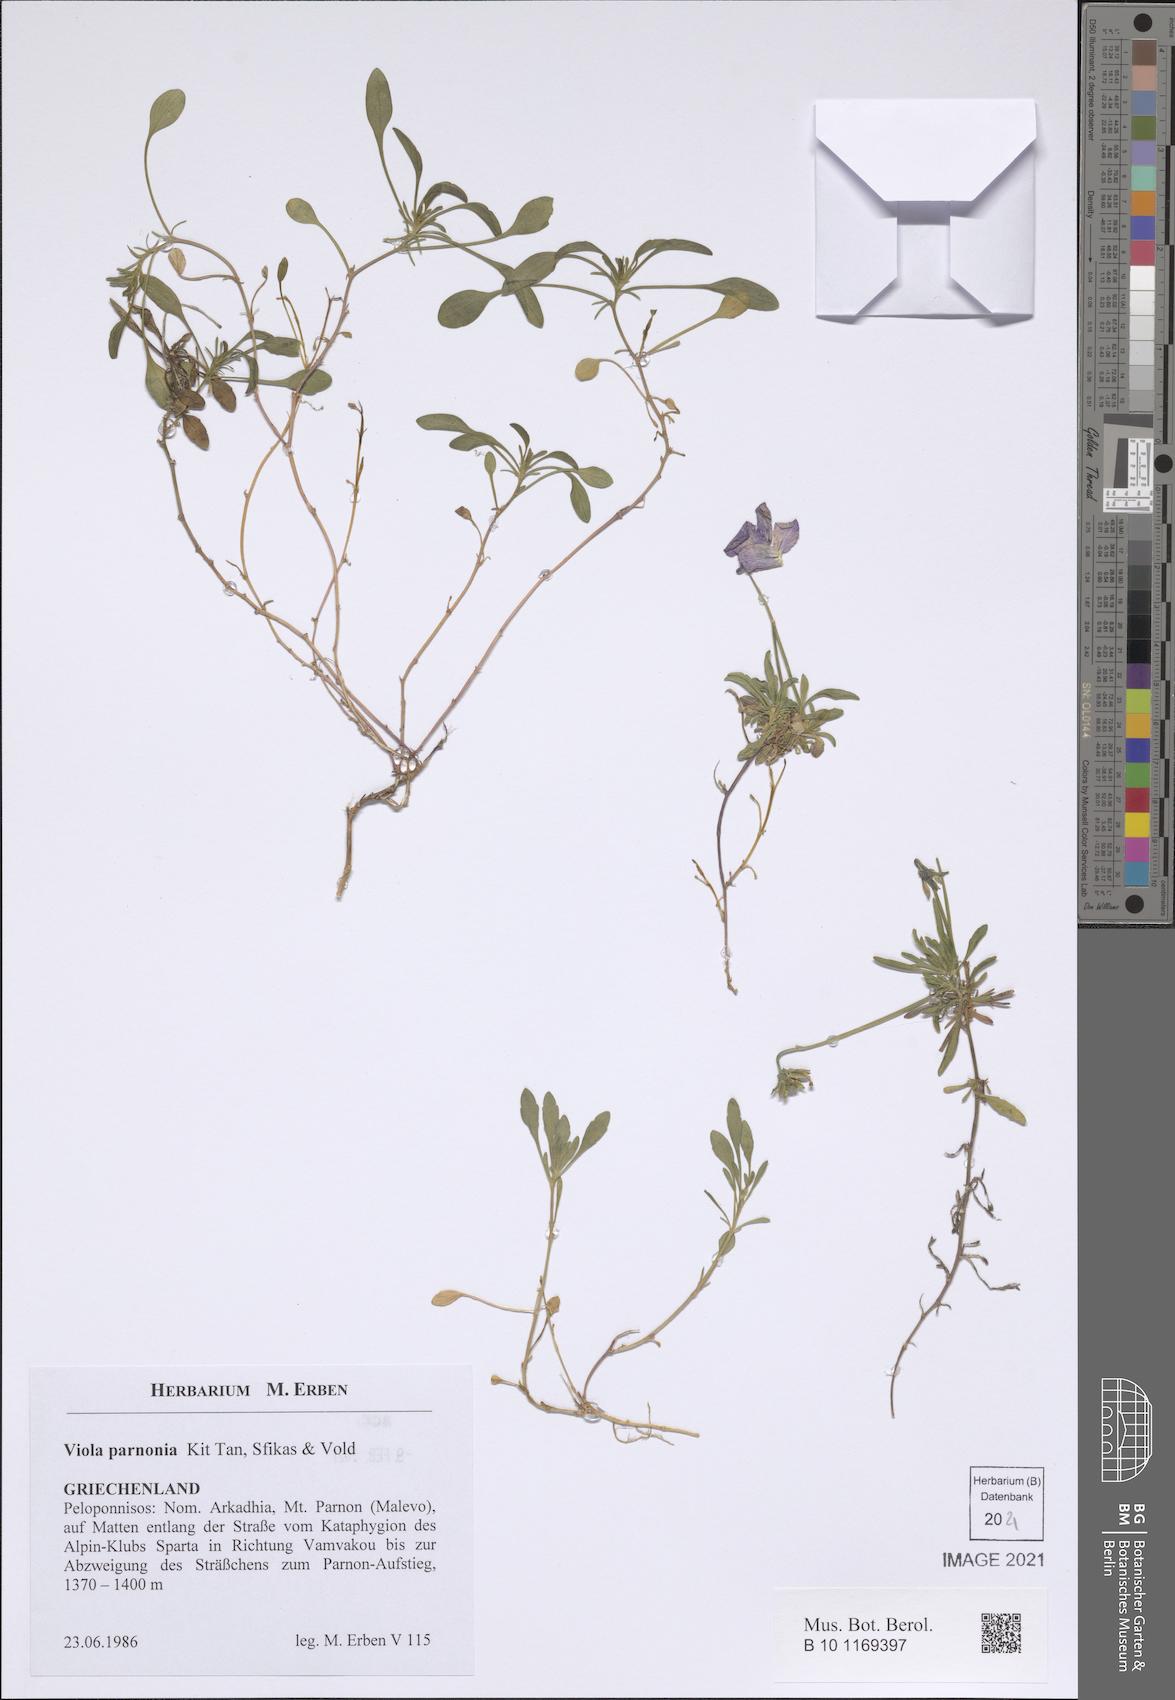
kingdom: Plantae
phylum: Tracheophyta
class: Magnoliopsida
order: Malpighiales
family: Violaceae
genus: Viola
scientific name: Viola parnonia
